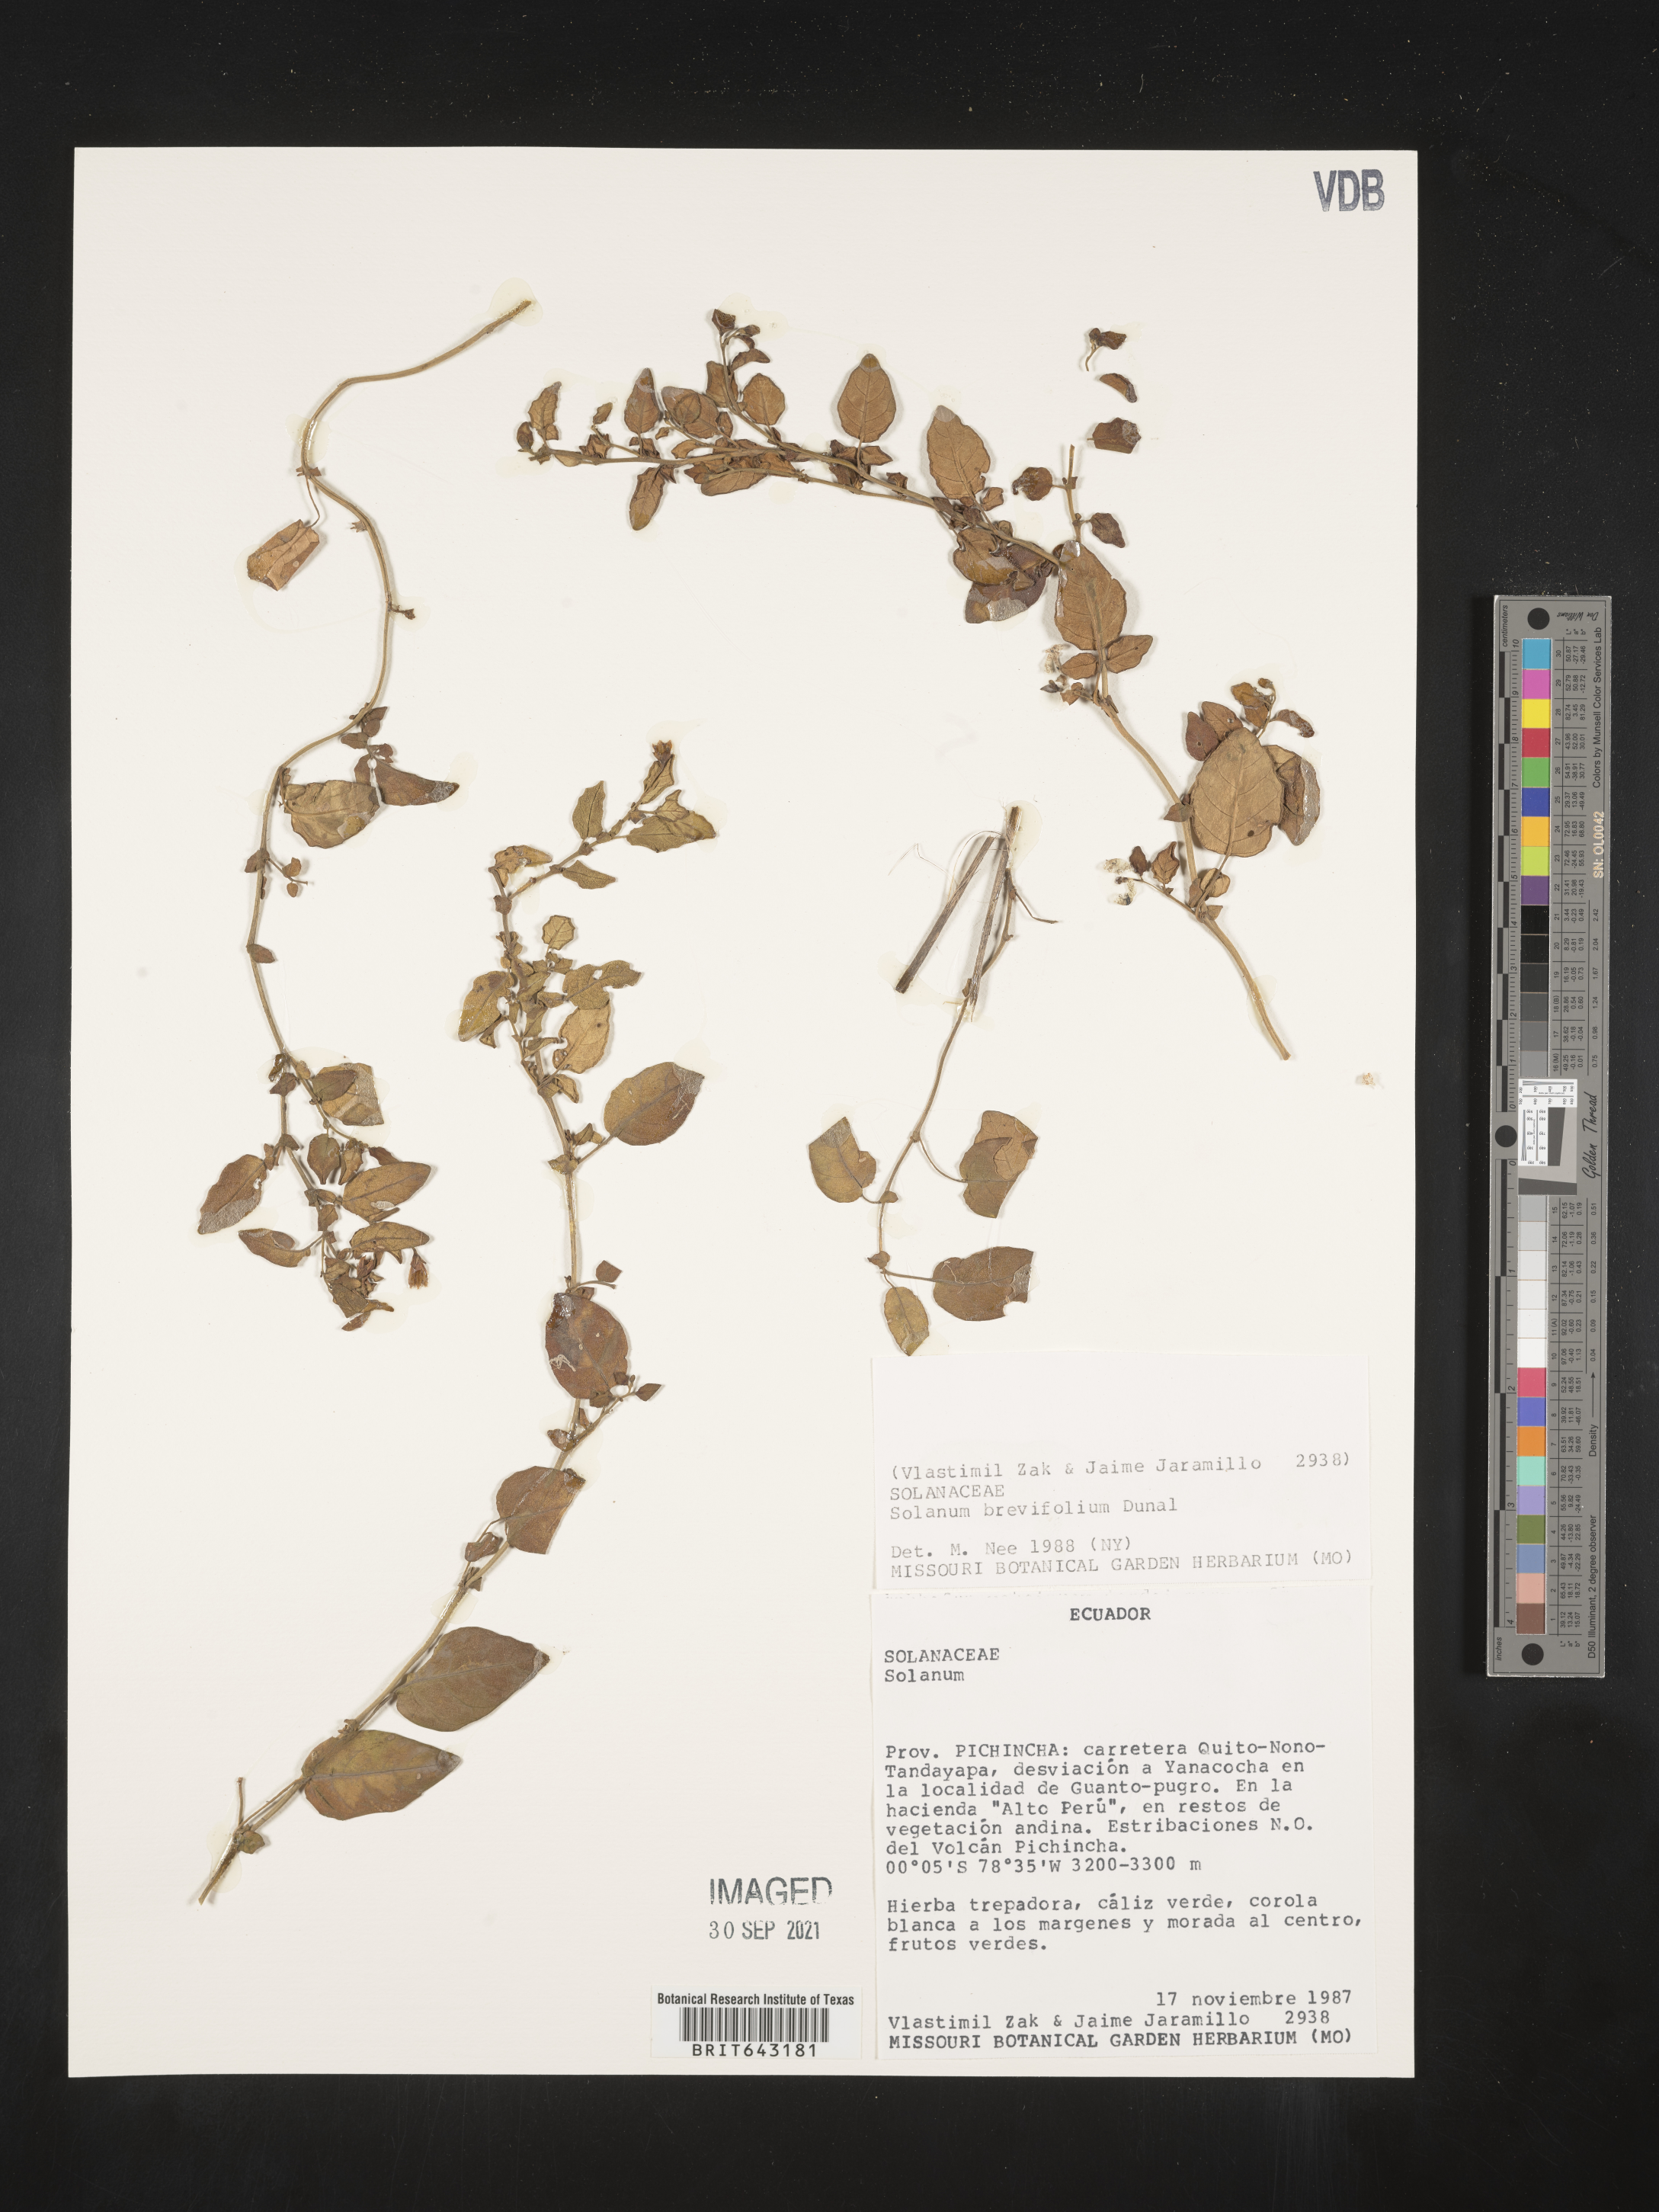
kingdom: Plantae
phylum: Tracheophyta
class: Magnoliopsida
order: Solanales
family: Solanaceae
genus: Solanum
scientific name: Solanum
